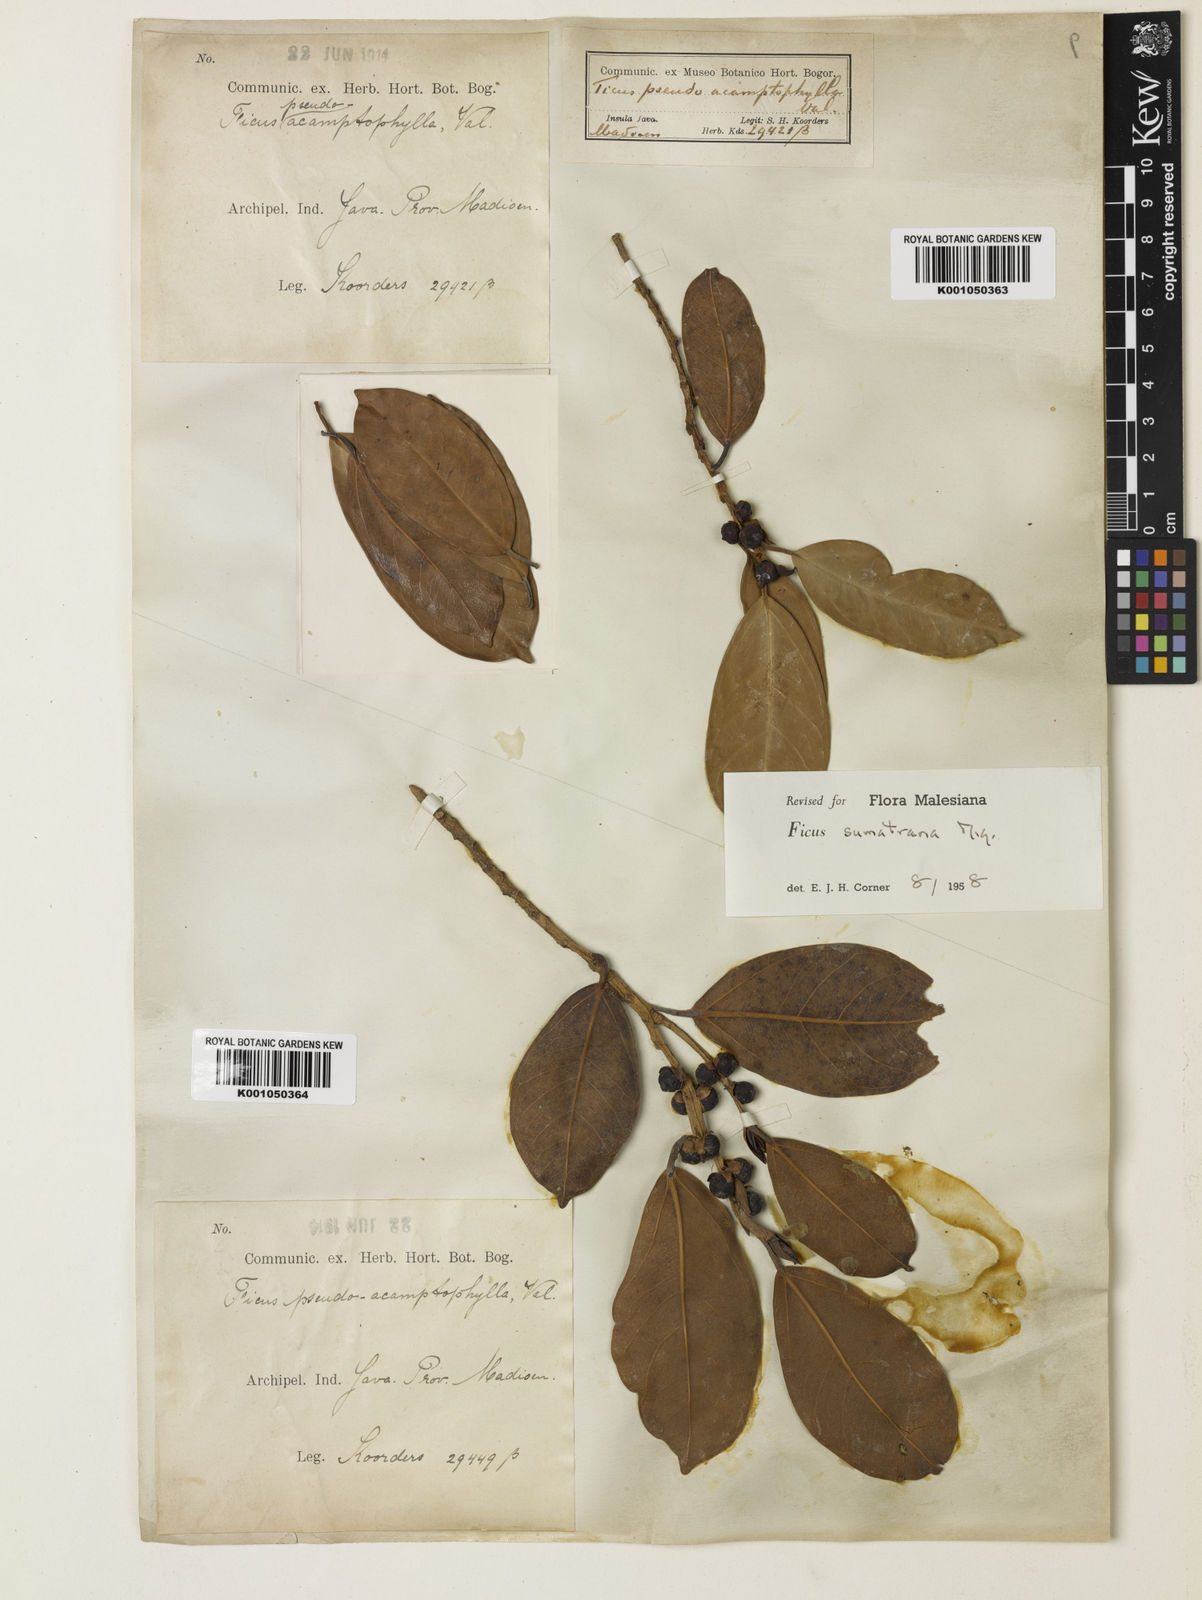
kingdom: Plantae
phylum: Tracheophyta
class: Magnoliopsida
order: Rosales
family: Moraceae
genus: Ficus
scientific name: Ficus sumatrana
